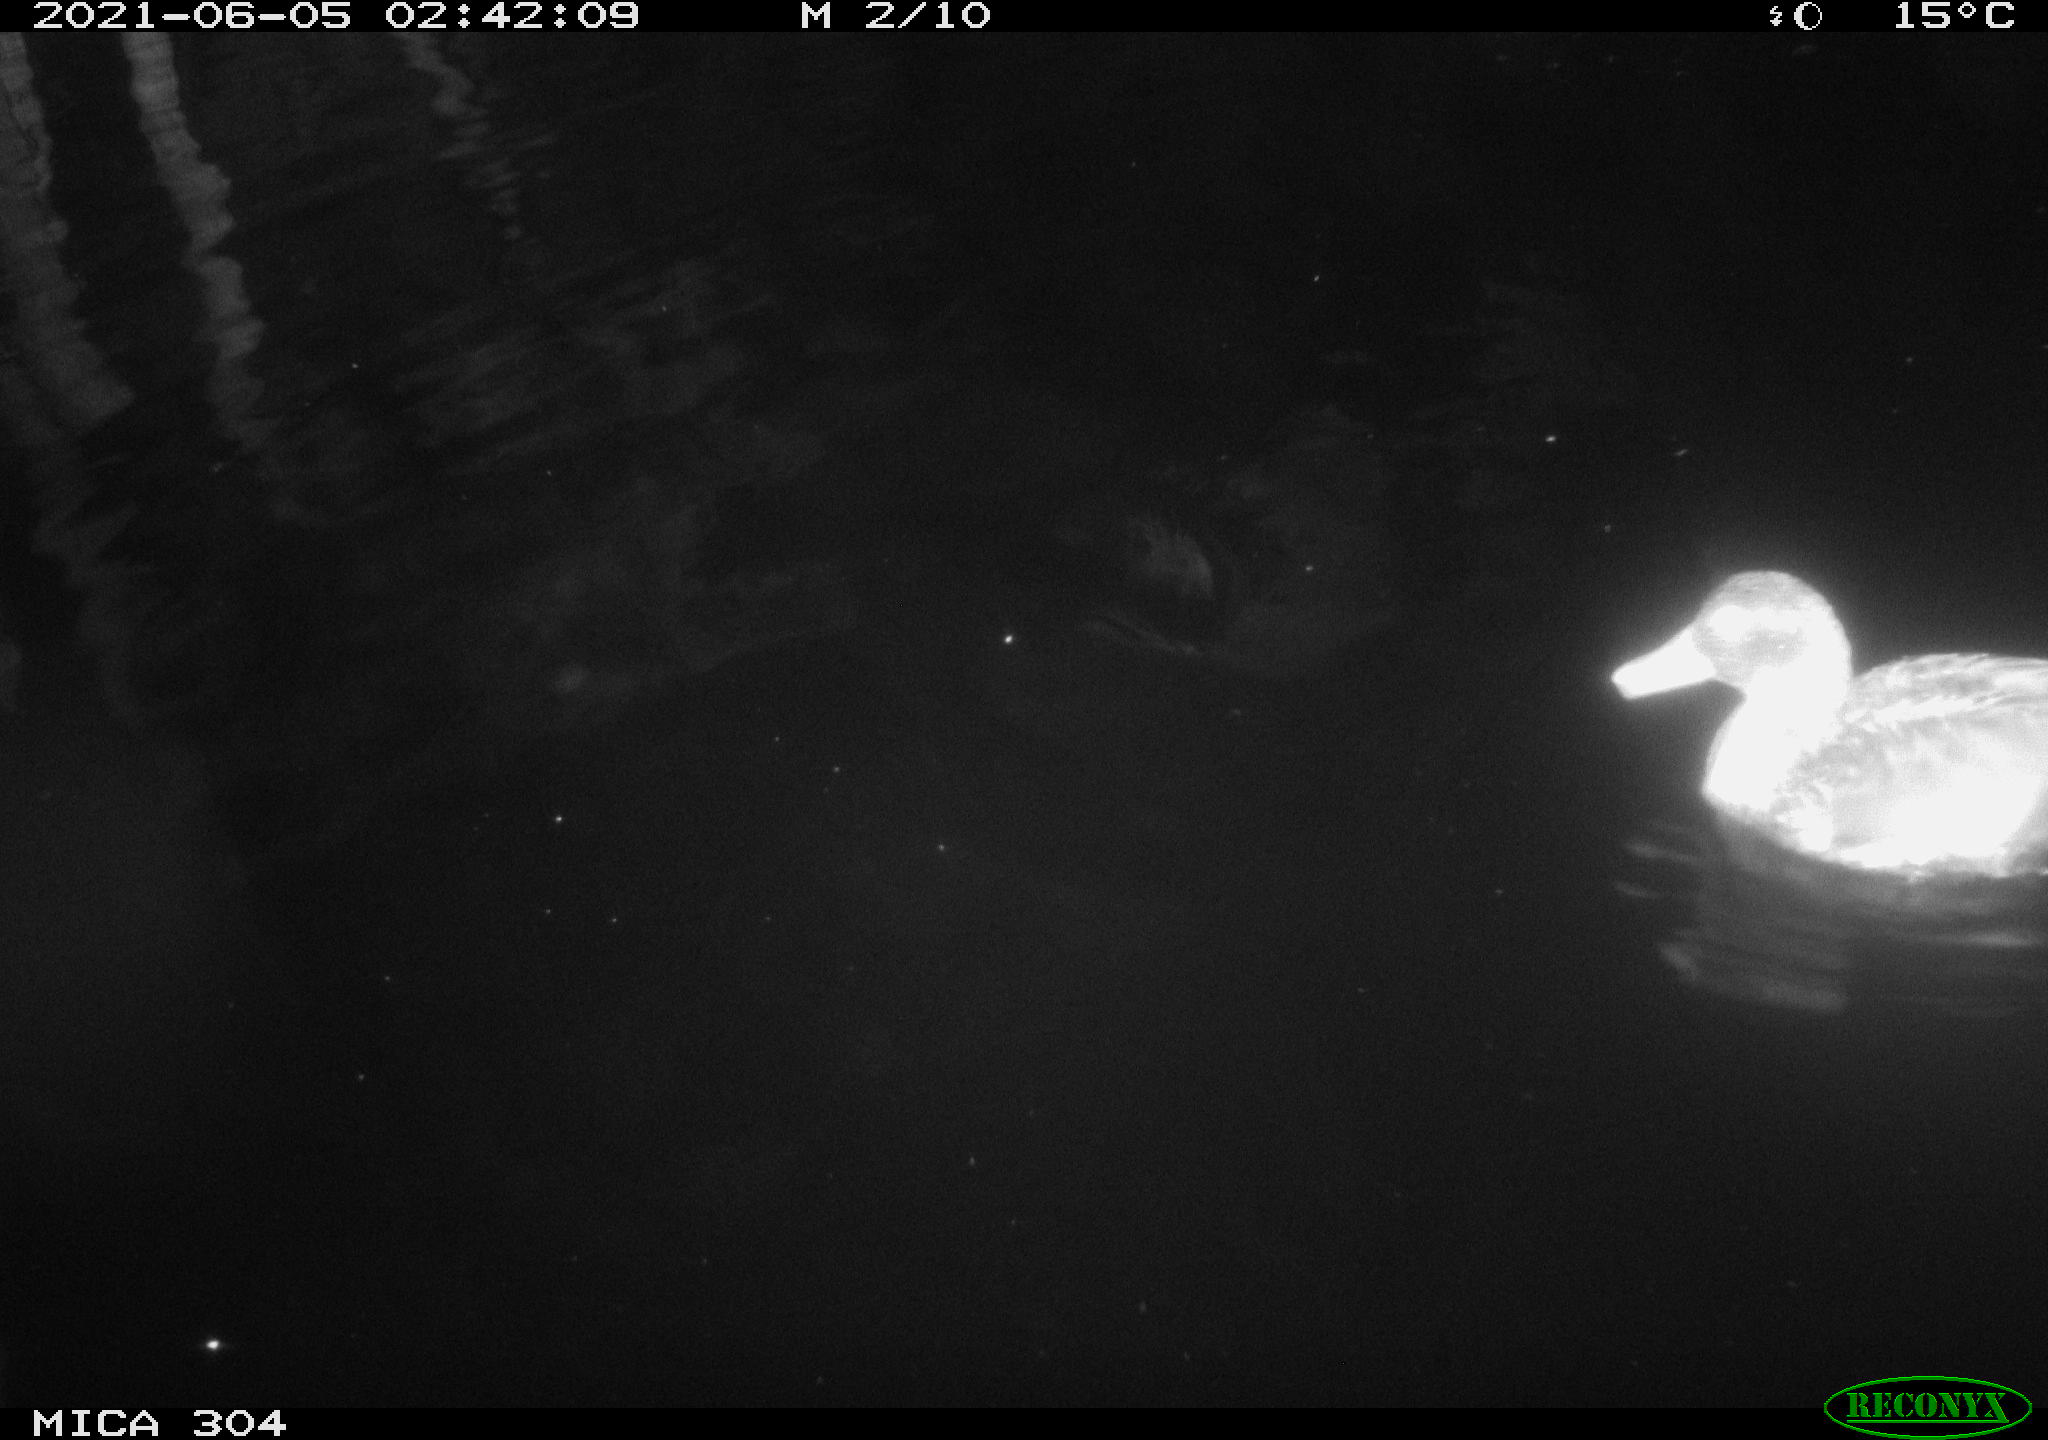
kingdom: Animalia
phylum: Chordata
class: Aves
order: Anseriformes
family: Anatidae
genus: Anas
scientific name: Anas platyrhynchos
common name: Mallard
